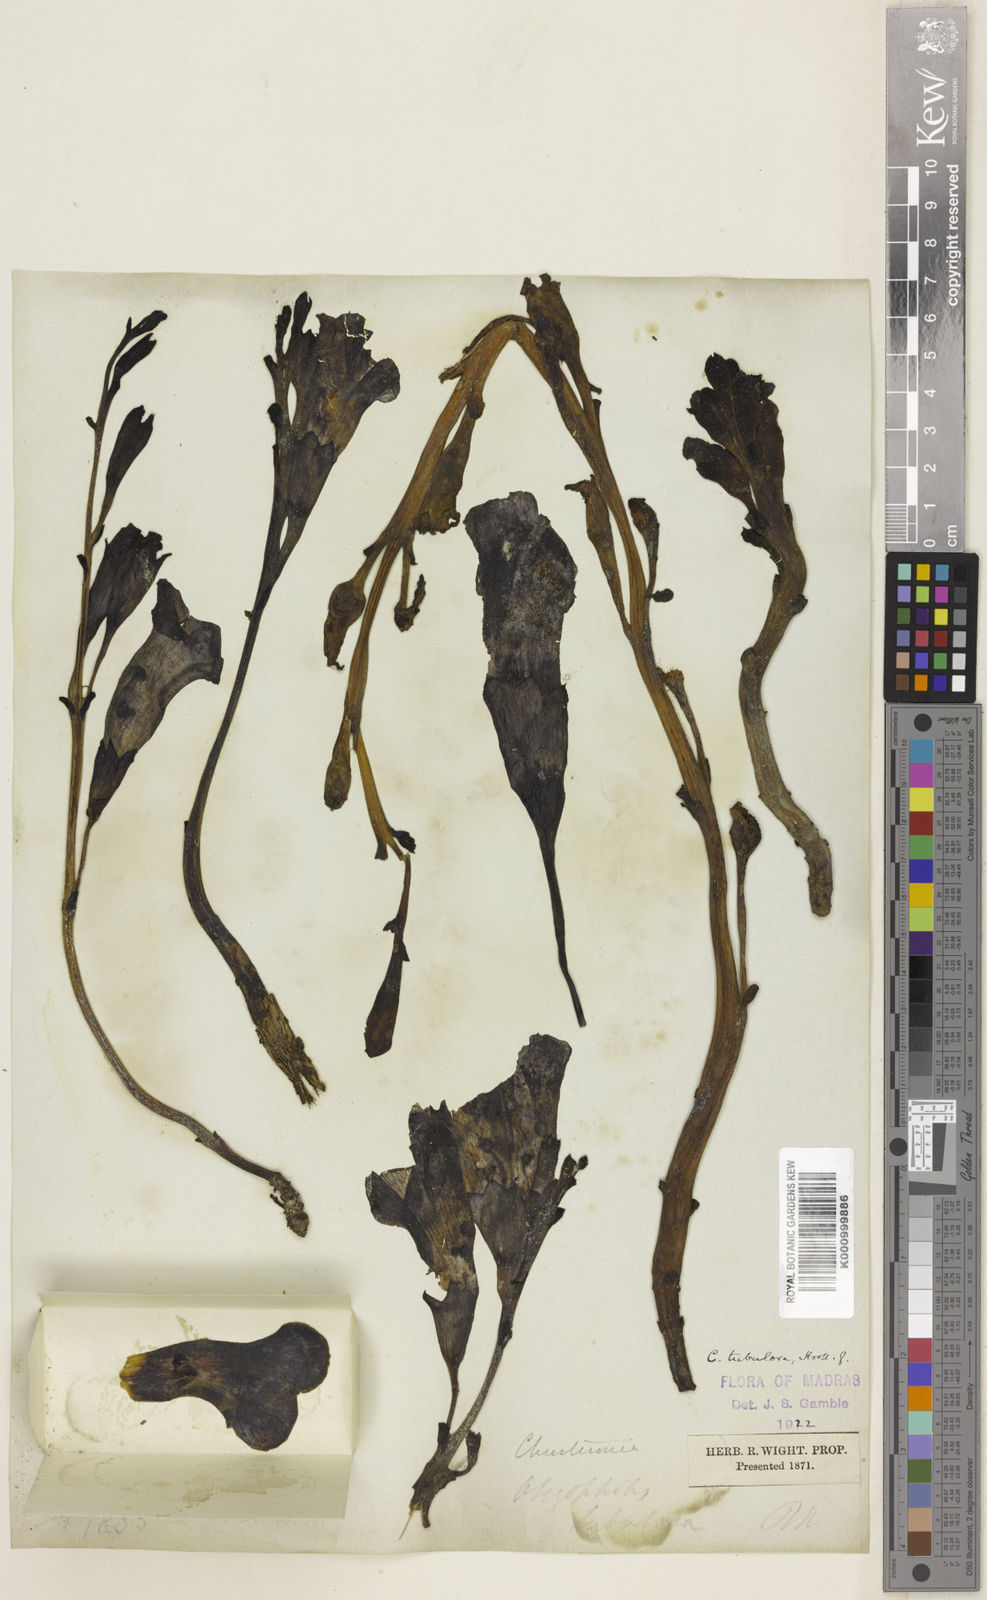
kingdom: Plantae
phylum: Tracheophyta
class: Magnoliopsida
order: Lamiales
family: Orobanchaceae
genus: Christisonia
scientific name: Christisonia tubulosa
